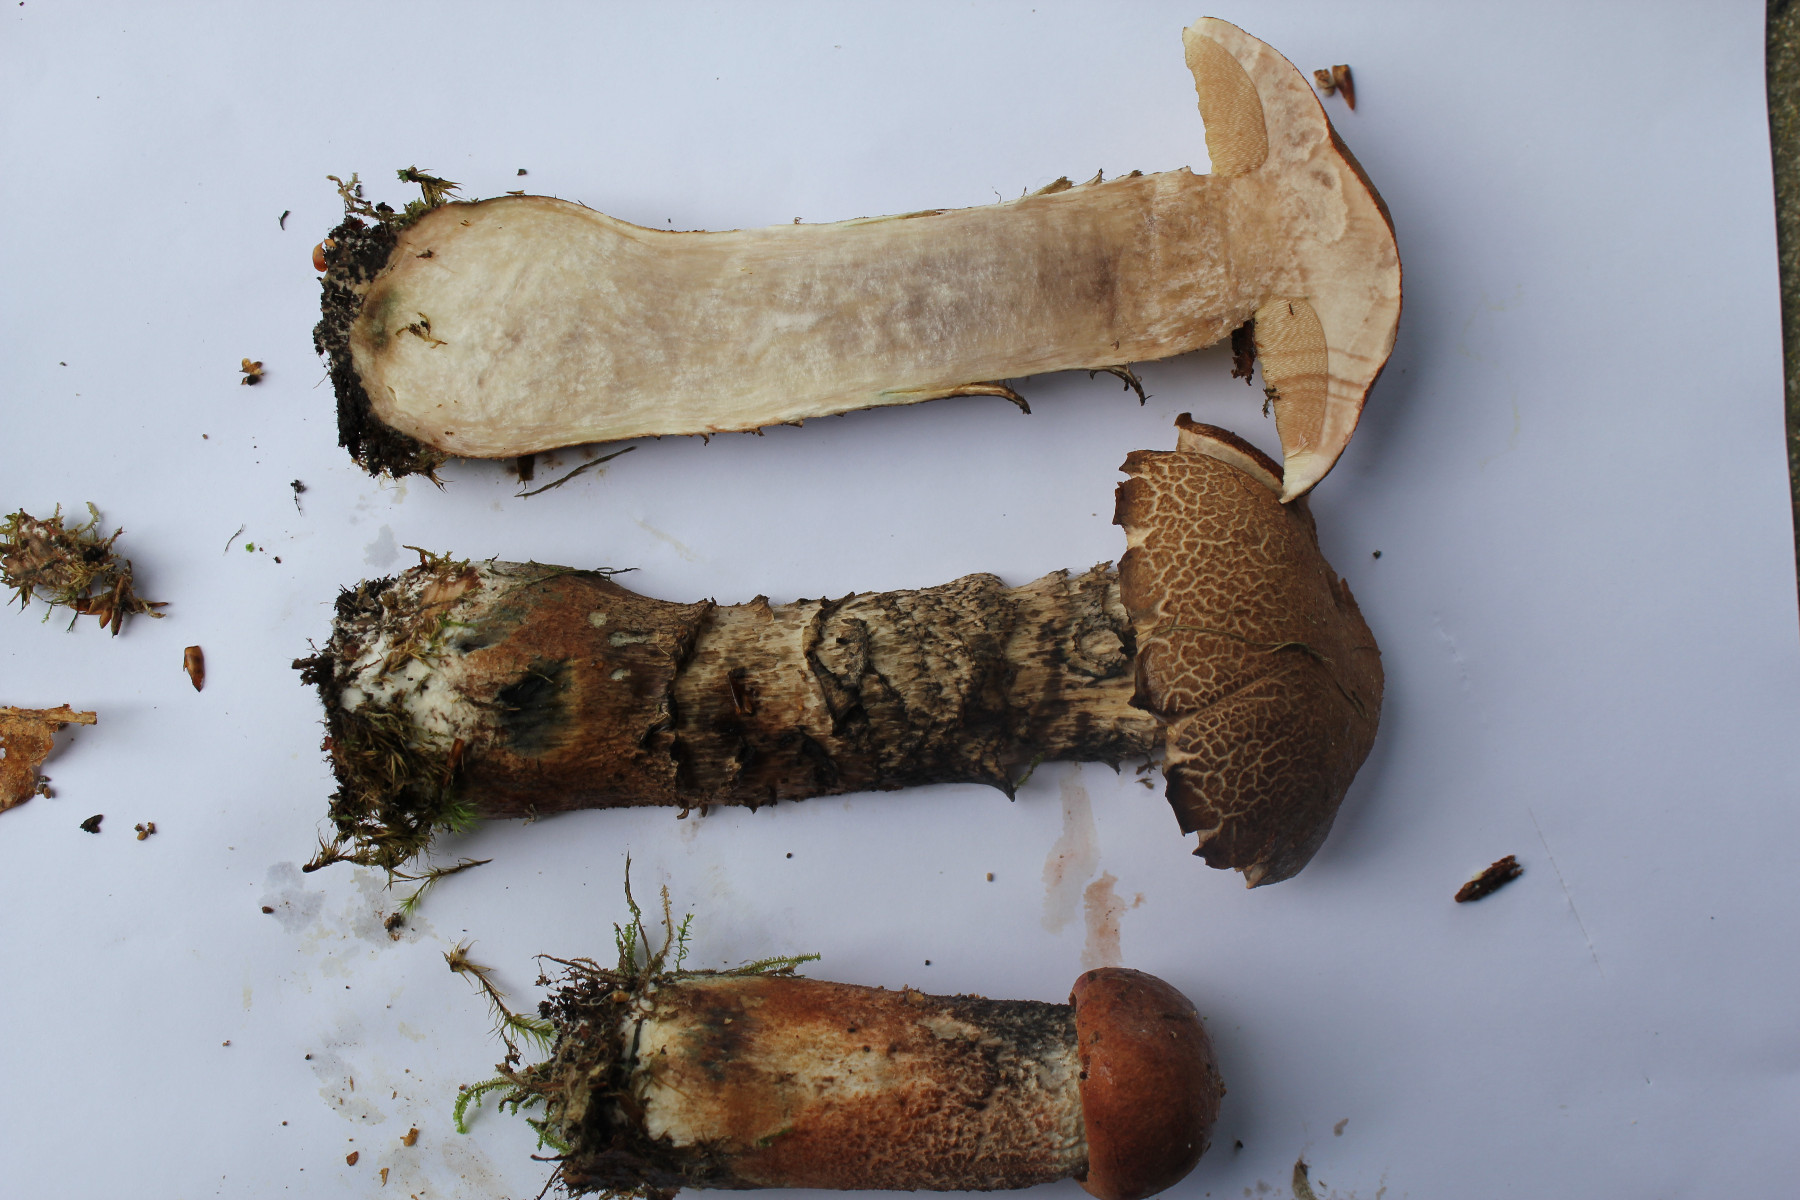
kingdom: Fungi
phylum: Basidiomycota
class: Agaricomycetes
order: Boletales
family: Boletaceae
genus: Leccinum
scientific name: Leccinum aurantiacum
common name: rustrød skælrørhat
